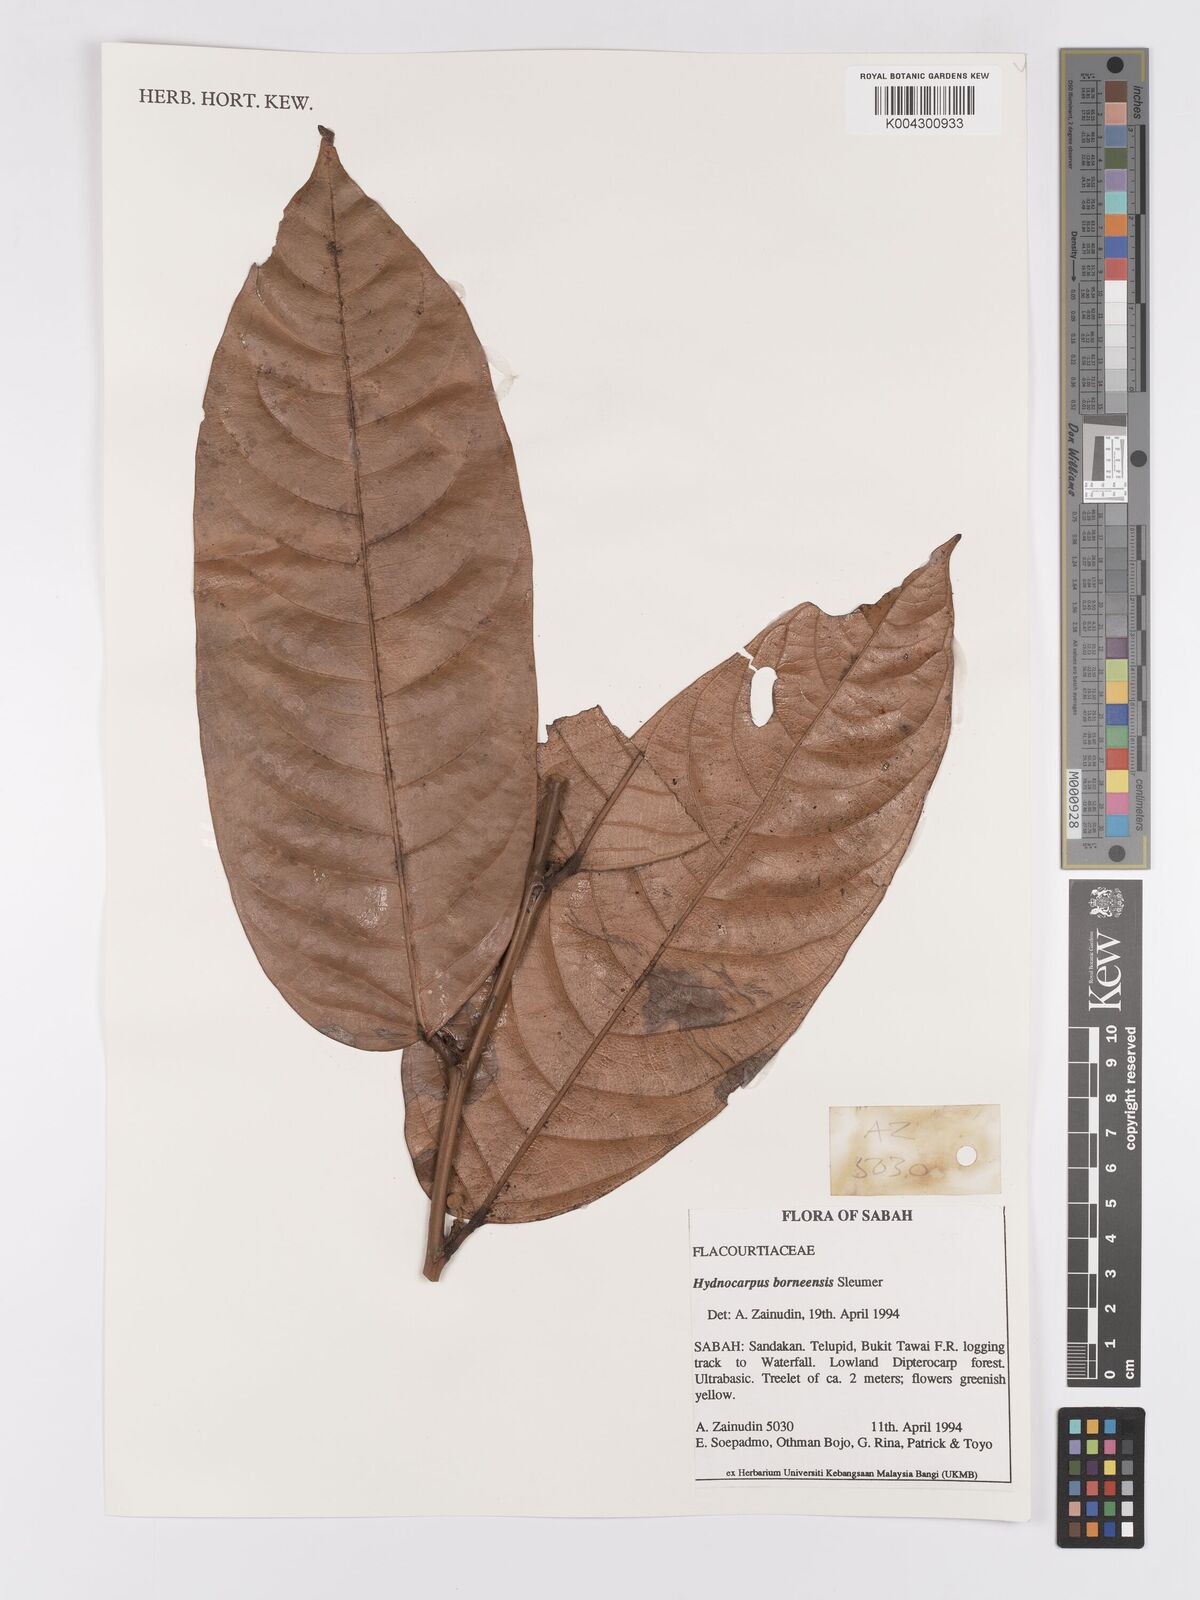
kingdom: Plantae
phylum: Tracheophyta
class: Magnoliopsida
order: Malpighiales
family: Achariaceae
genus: Hydnocarpus
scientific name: Hydnocarpus borneensis
